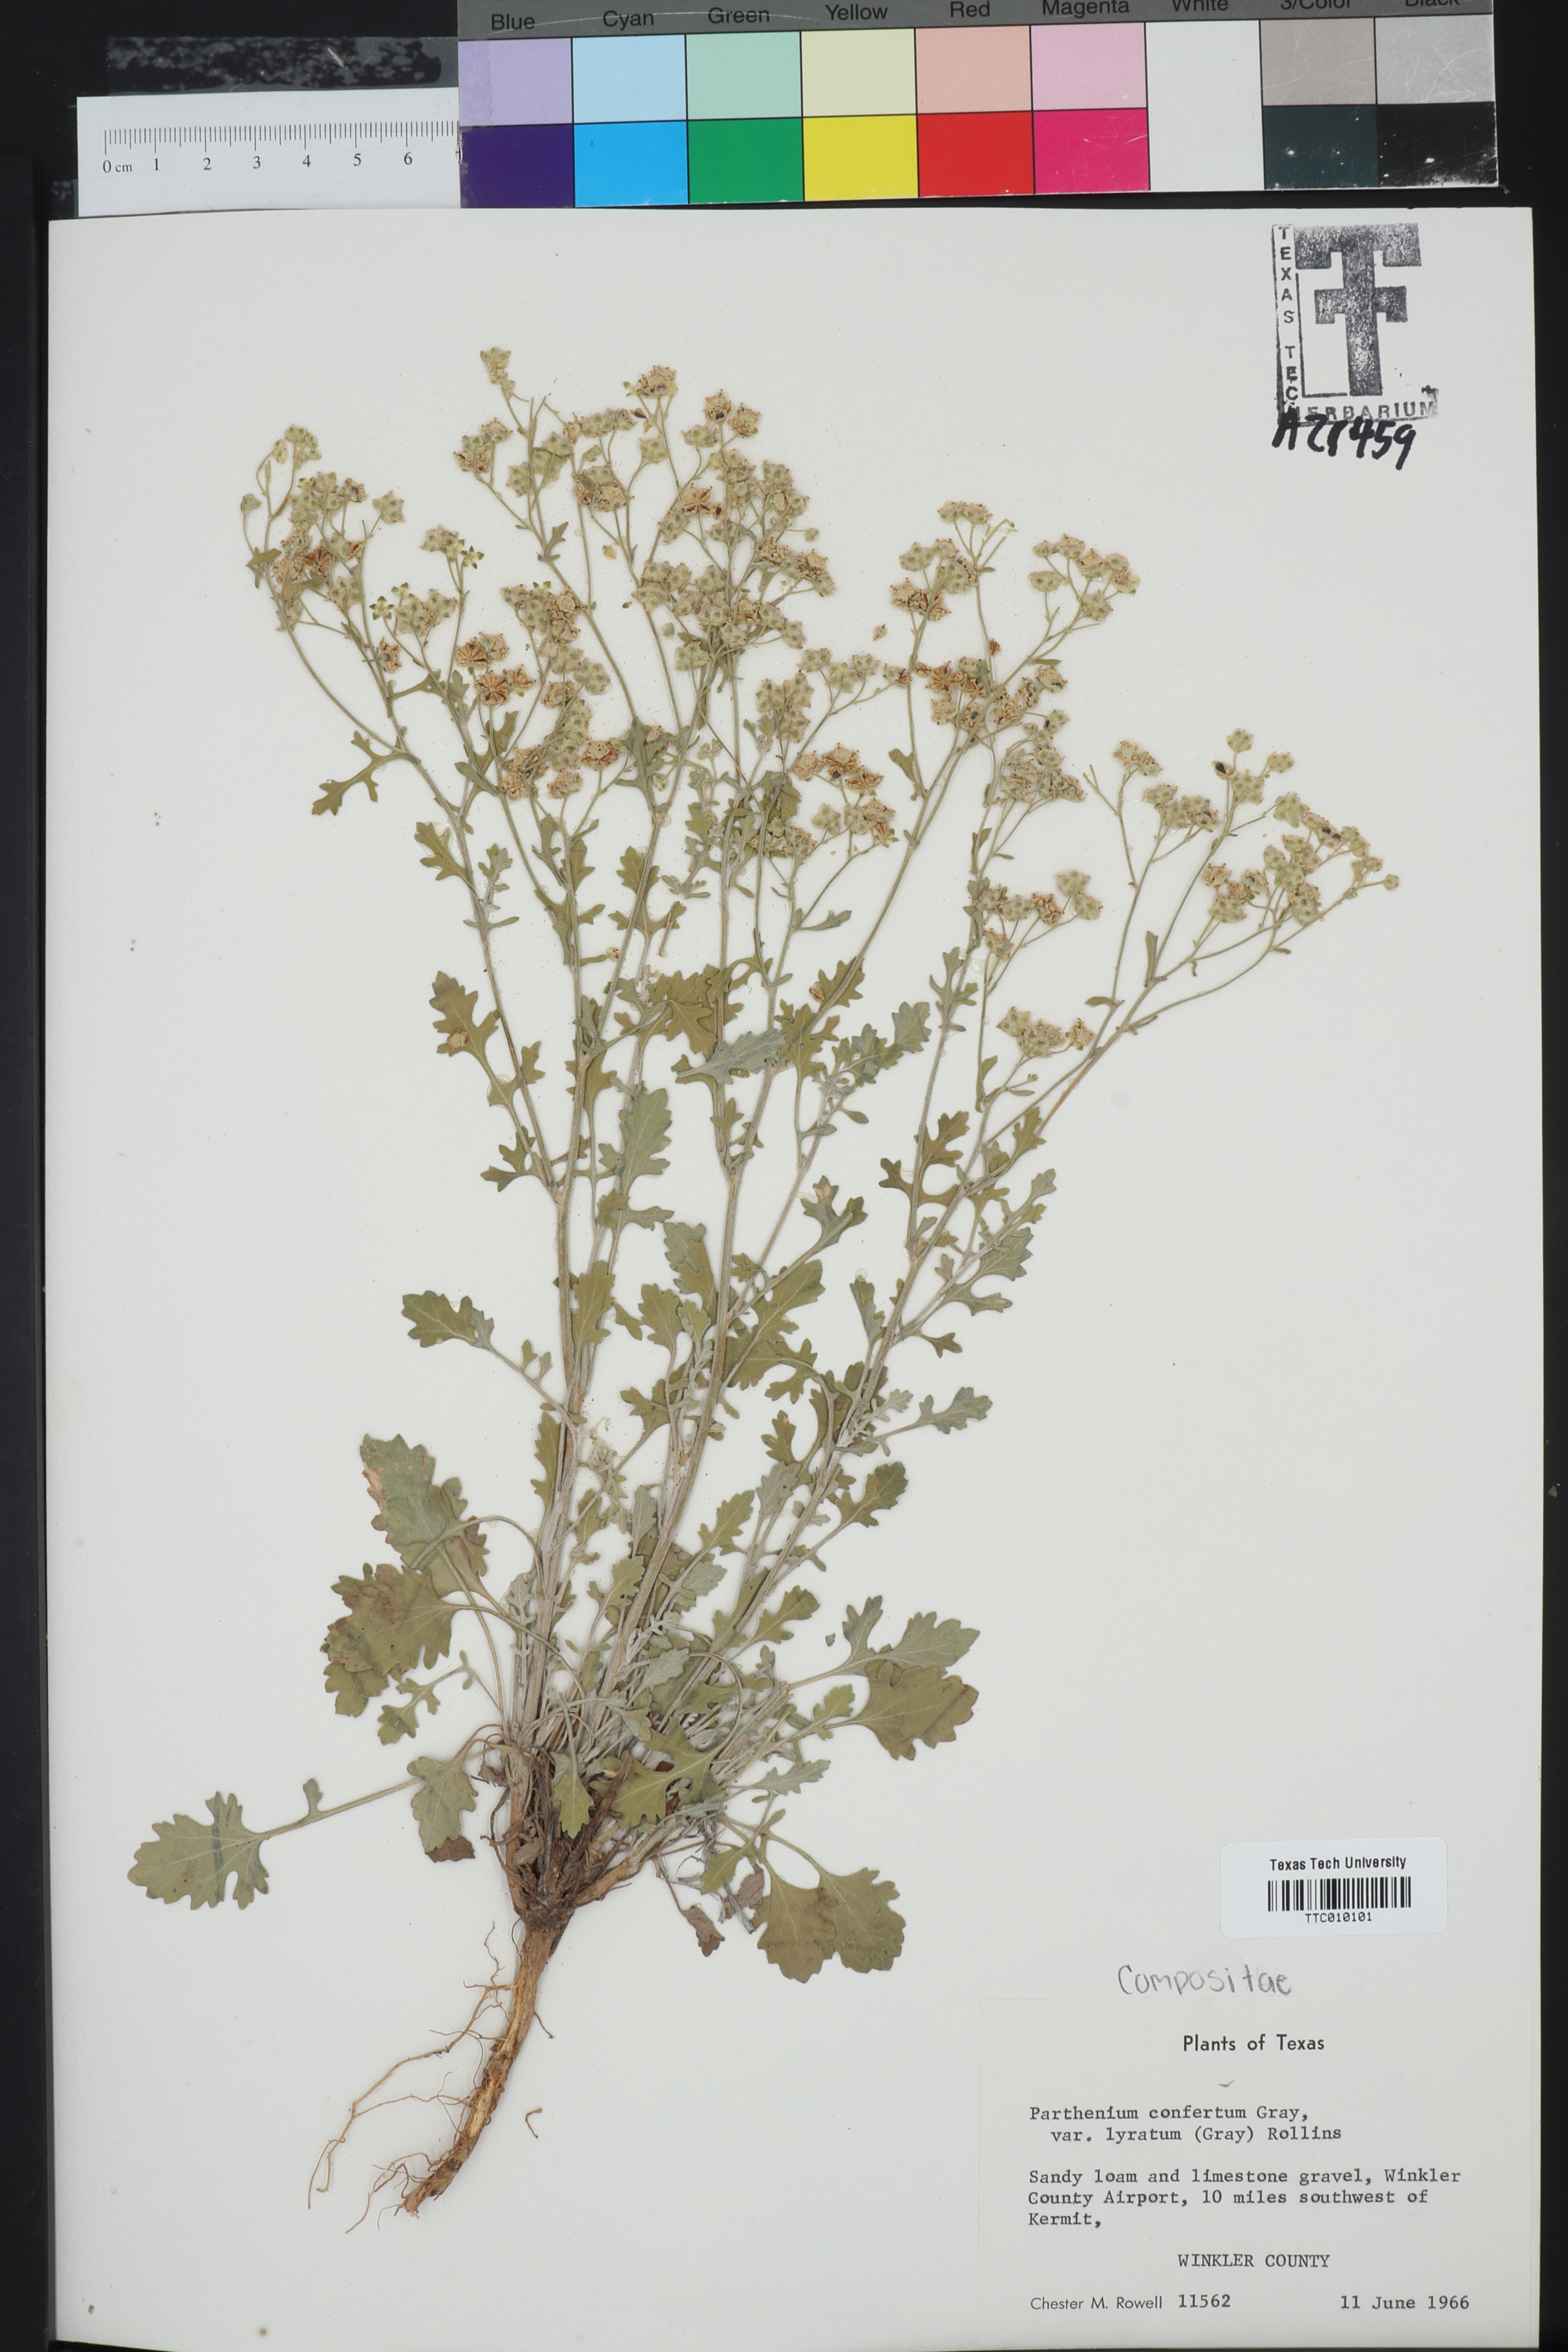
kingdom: Plantae
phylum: Tracheophyta
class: Magnoliopsida
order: Asterales
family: Asteraceae
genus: Parthenium
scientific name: Parthenium confertum
